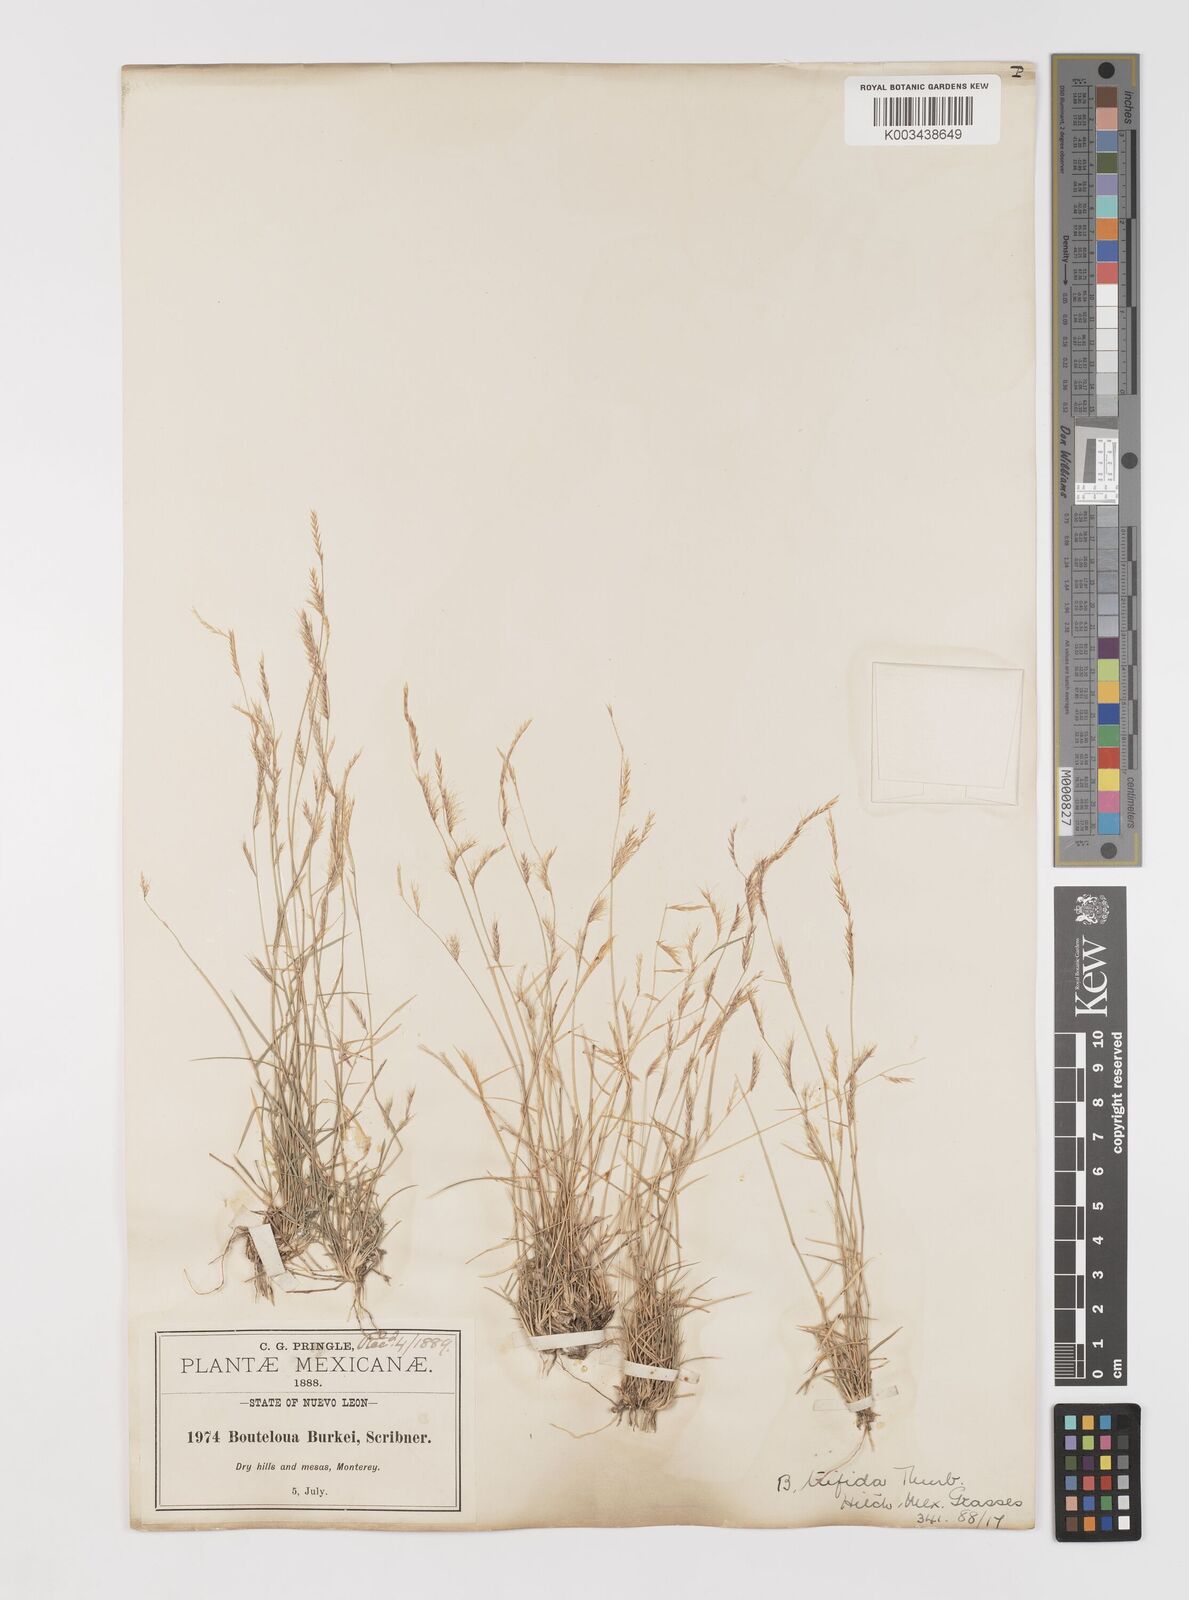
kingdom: Plantae
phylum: Tracheophyta
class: Liliopsida
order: Poales
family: Poaceae
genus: Bouteloua
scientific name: Bouteloua
